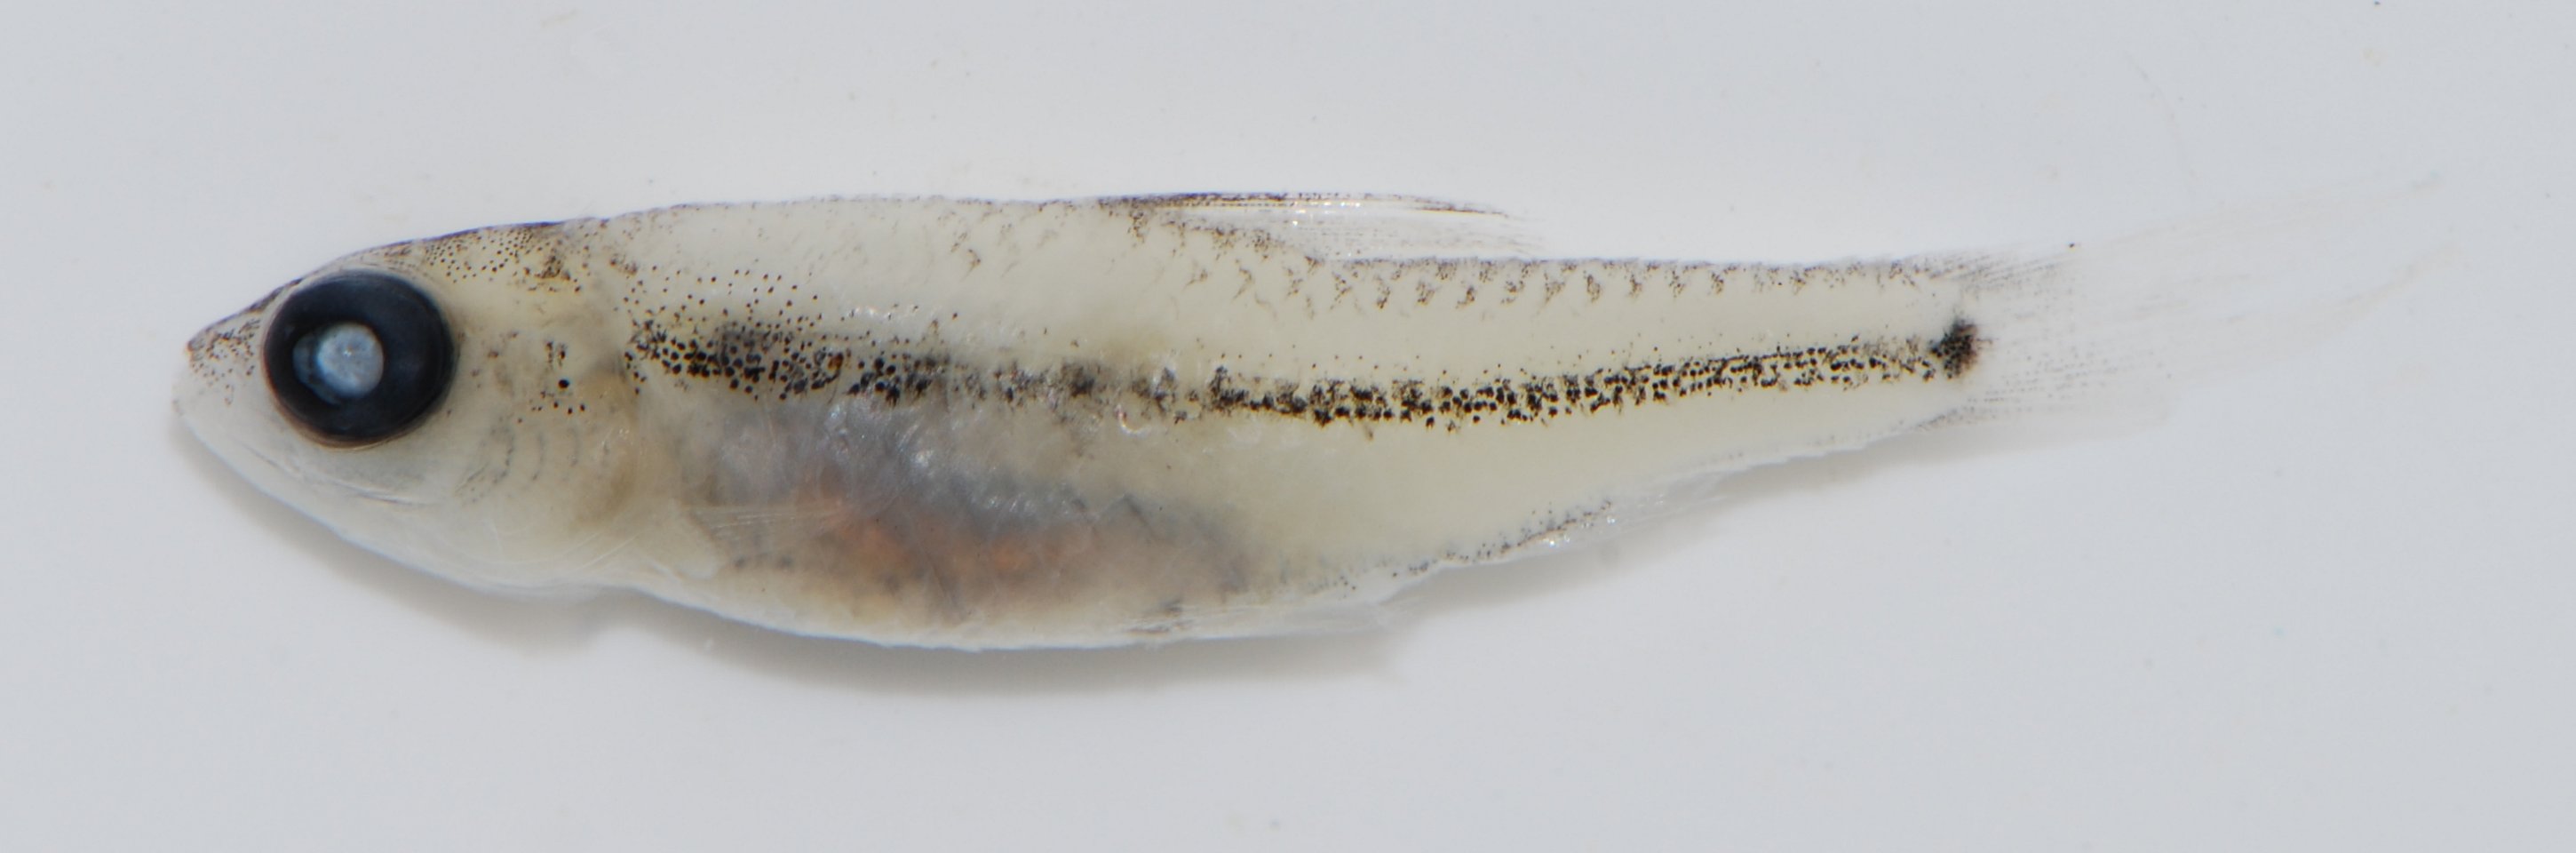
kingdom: Animalia
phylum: Chordata
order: Cypriniformes
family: Cyprinidae
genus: Barbus
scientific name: Barbus
